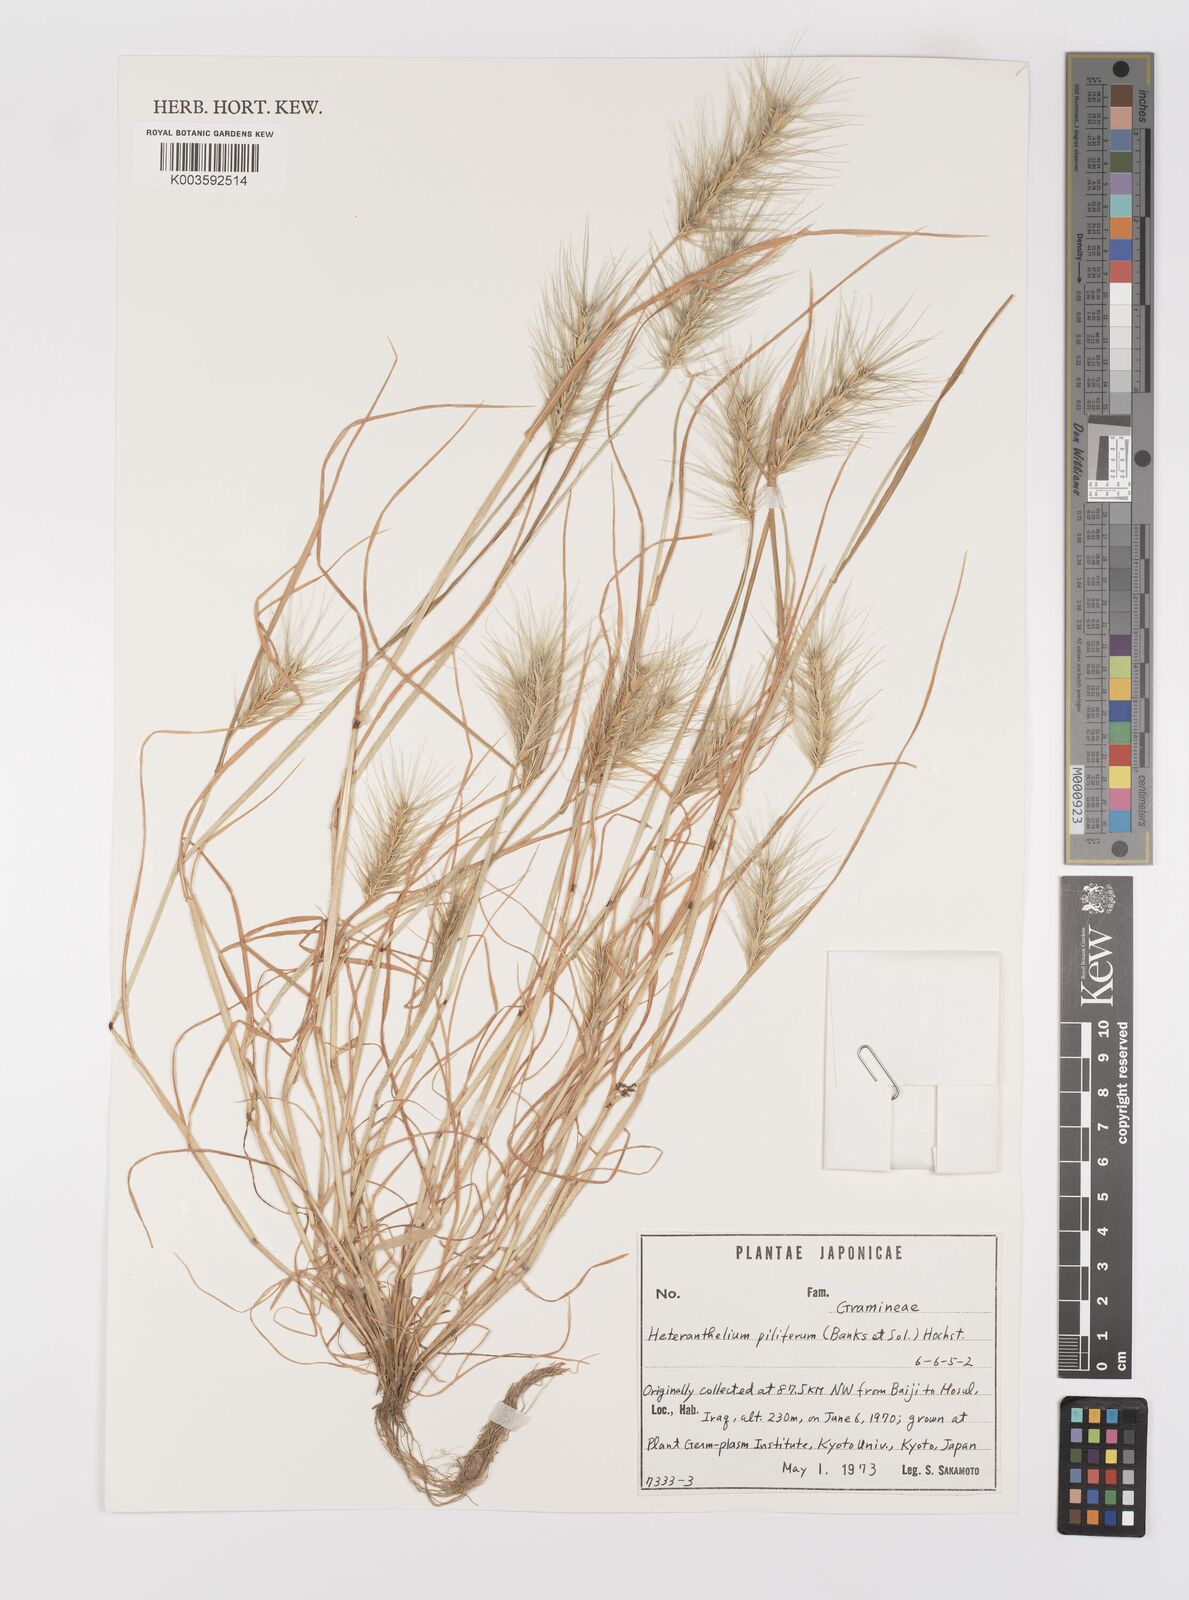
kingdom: Plantae
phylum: Tracheophyta
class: Liliopsida
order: Poales
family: Poaceae
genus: Heteranthelium
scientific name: Heteranthelium piliferum
